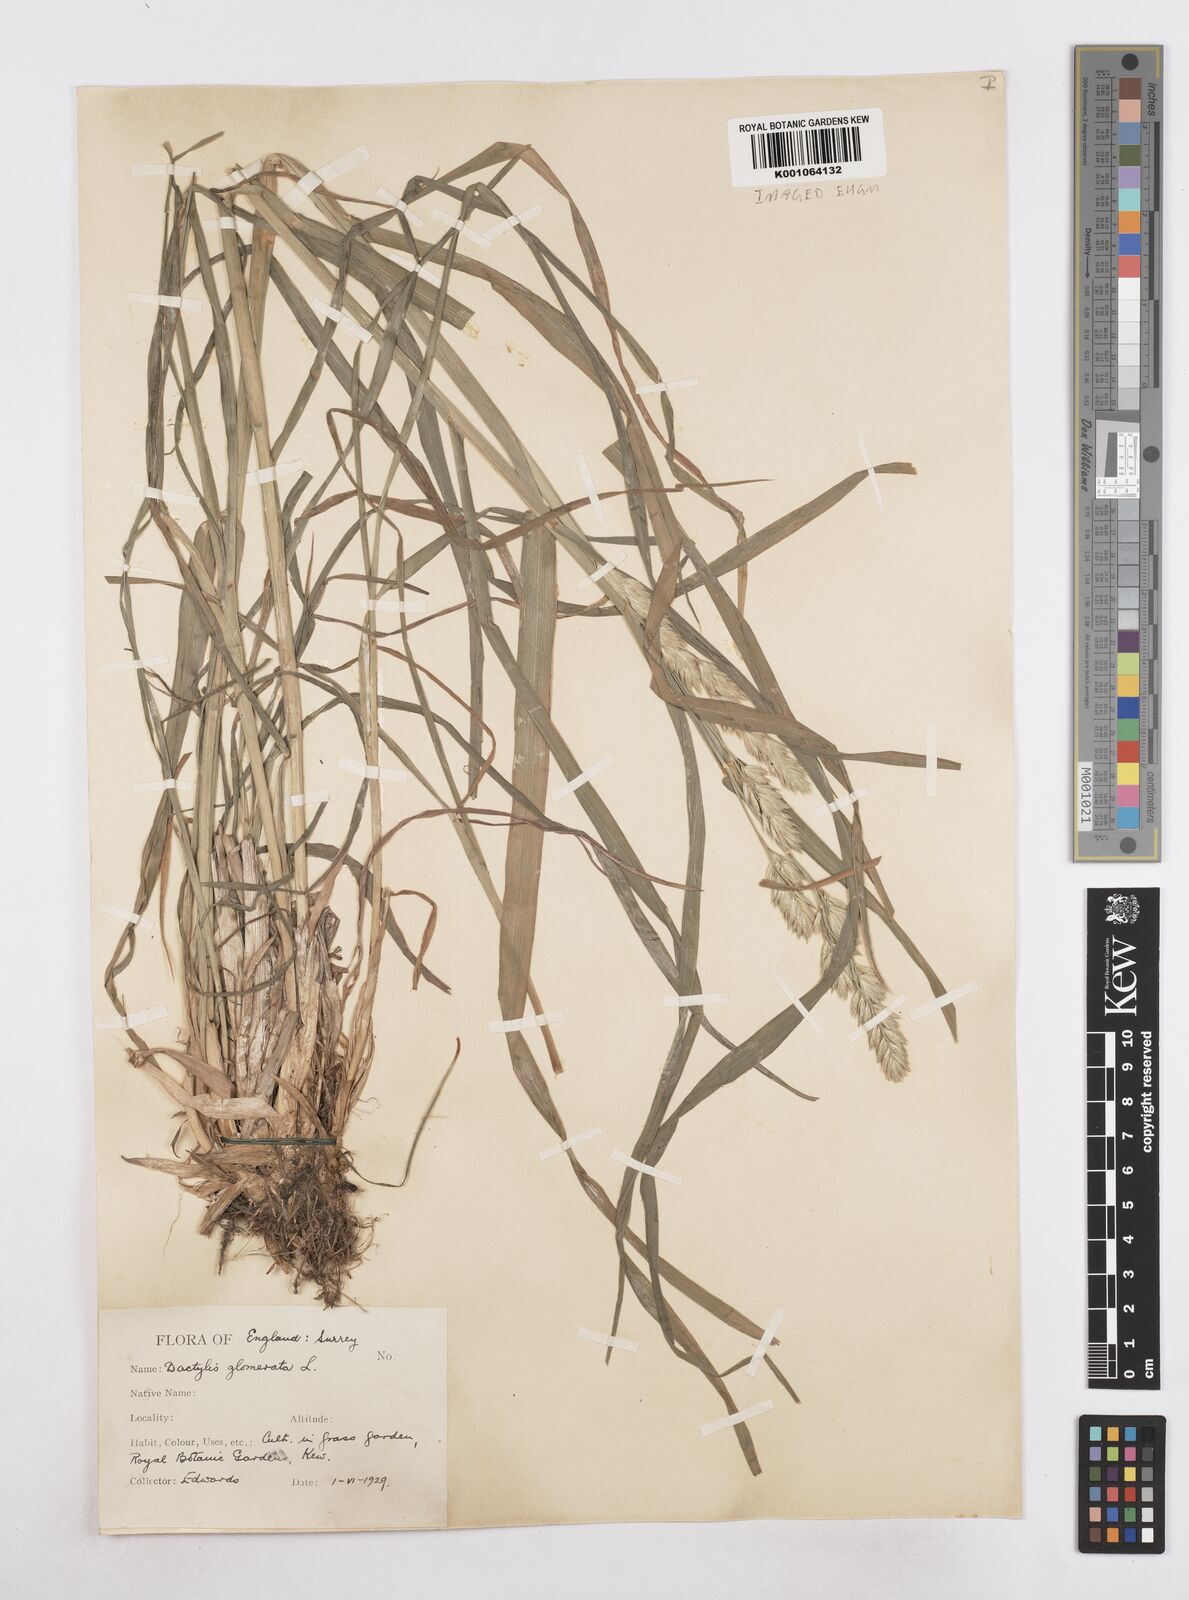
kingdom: Plantae
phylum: Tracheophyta
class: Liliopsida
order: Poales
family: Poaceae
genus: Dactylis
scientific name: Dactylis glomerata
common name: Orchardgrass
